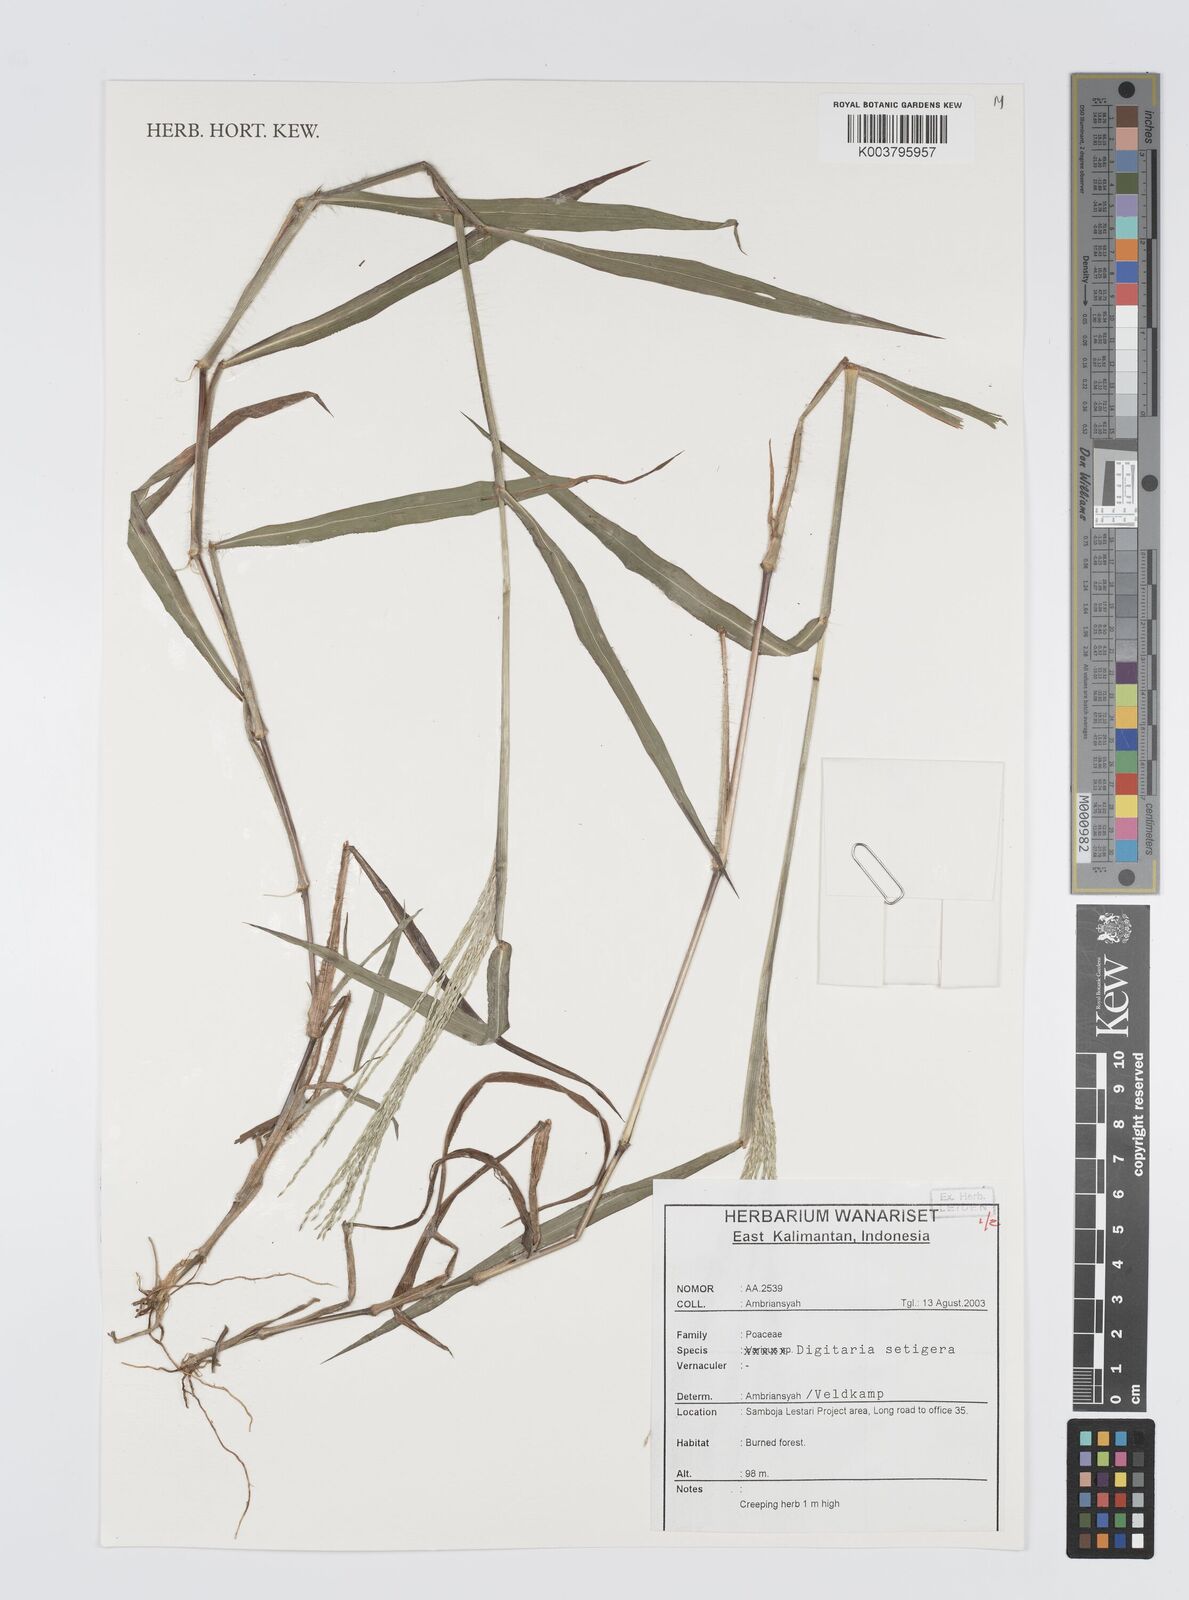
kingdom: Plantae
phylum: Tracheophyta
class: Liliopsida
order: Poales
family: Poaceae
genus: Digitaria
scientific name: Digitaria setigera
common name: East indian crabgrass
